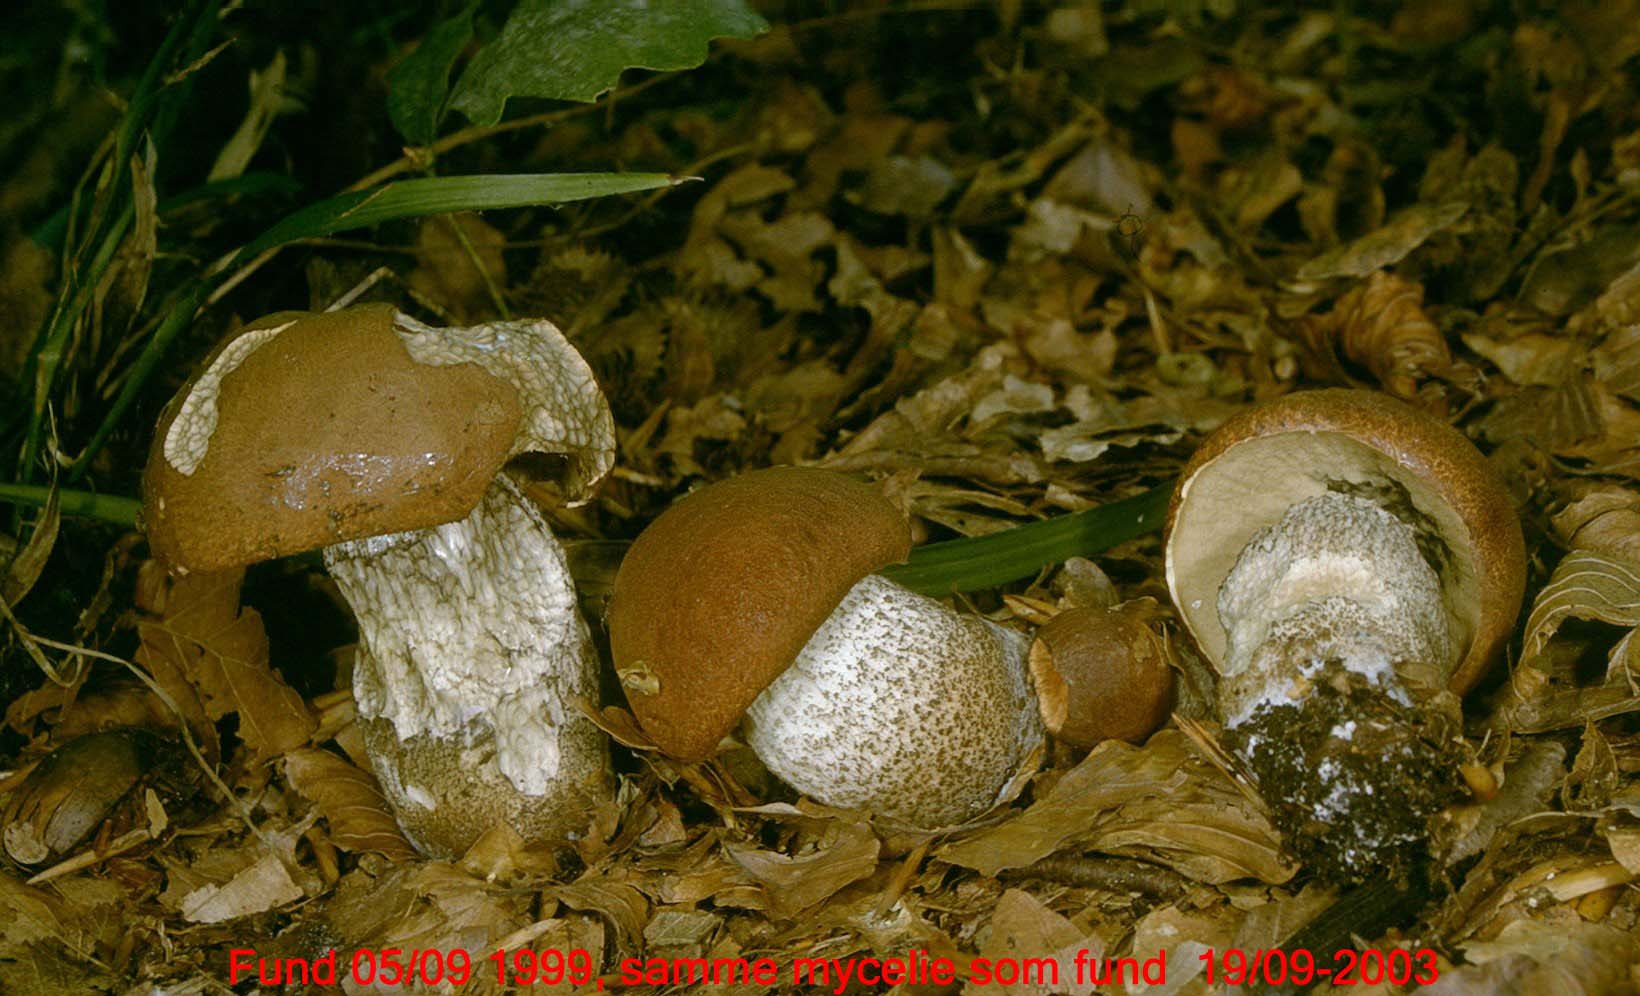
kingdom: Fungi
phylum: Basidiomycota
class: Agaricomycetes
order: Boletales
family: Boletaceae
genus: Leccinum
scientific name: Leccinum aurantiacum
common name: rustrød skælrørhat
